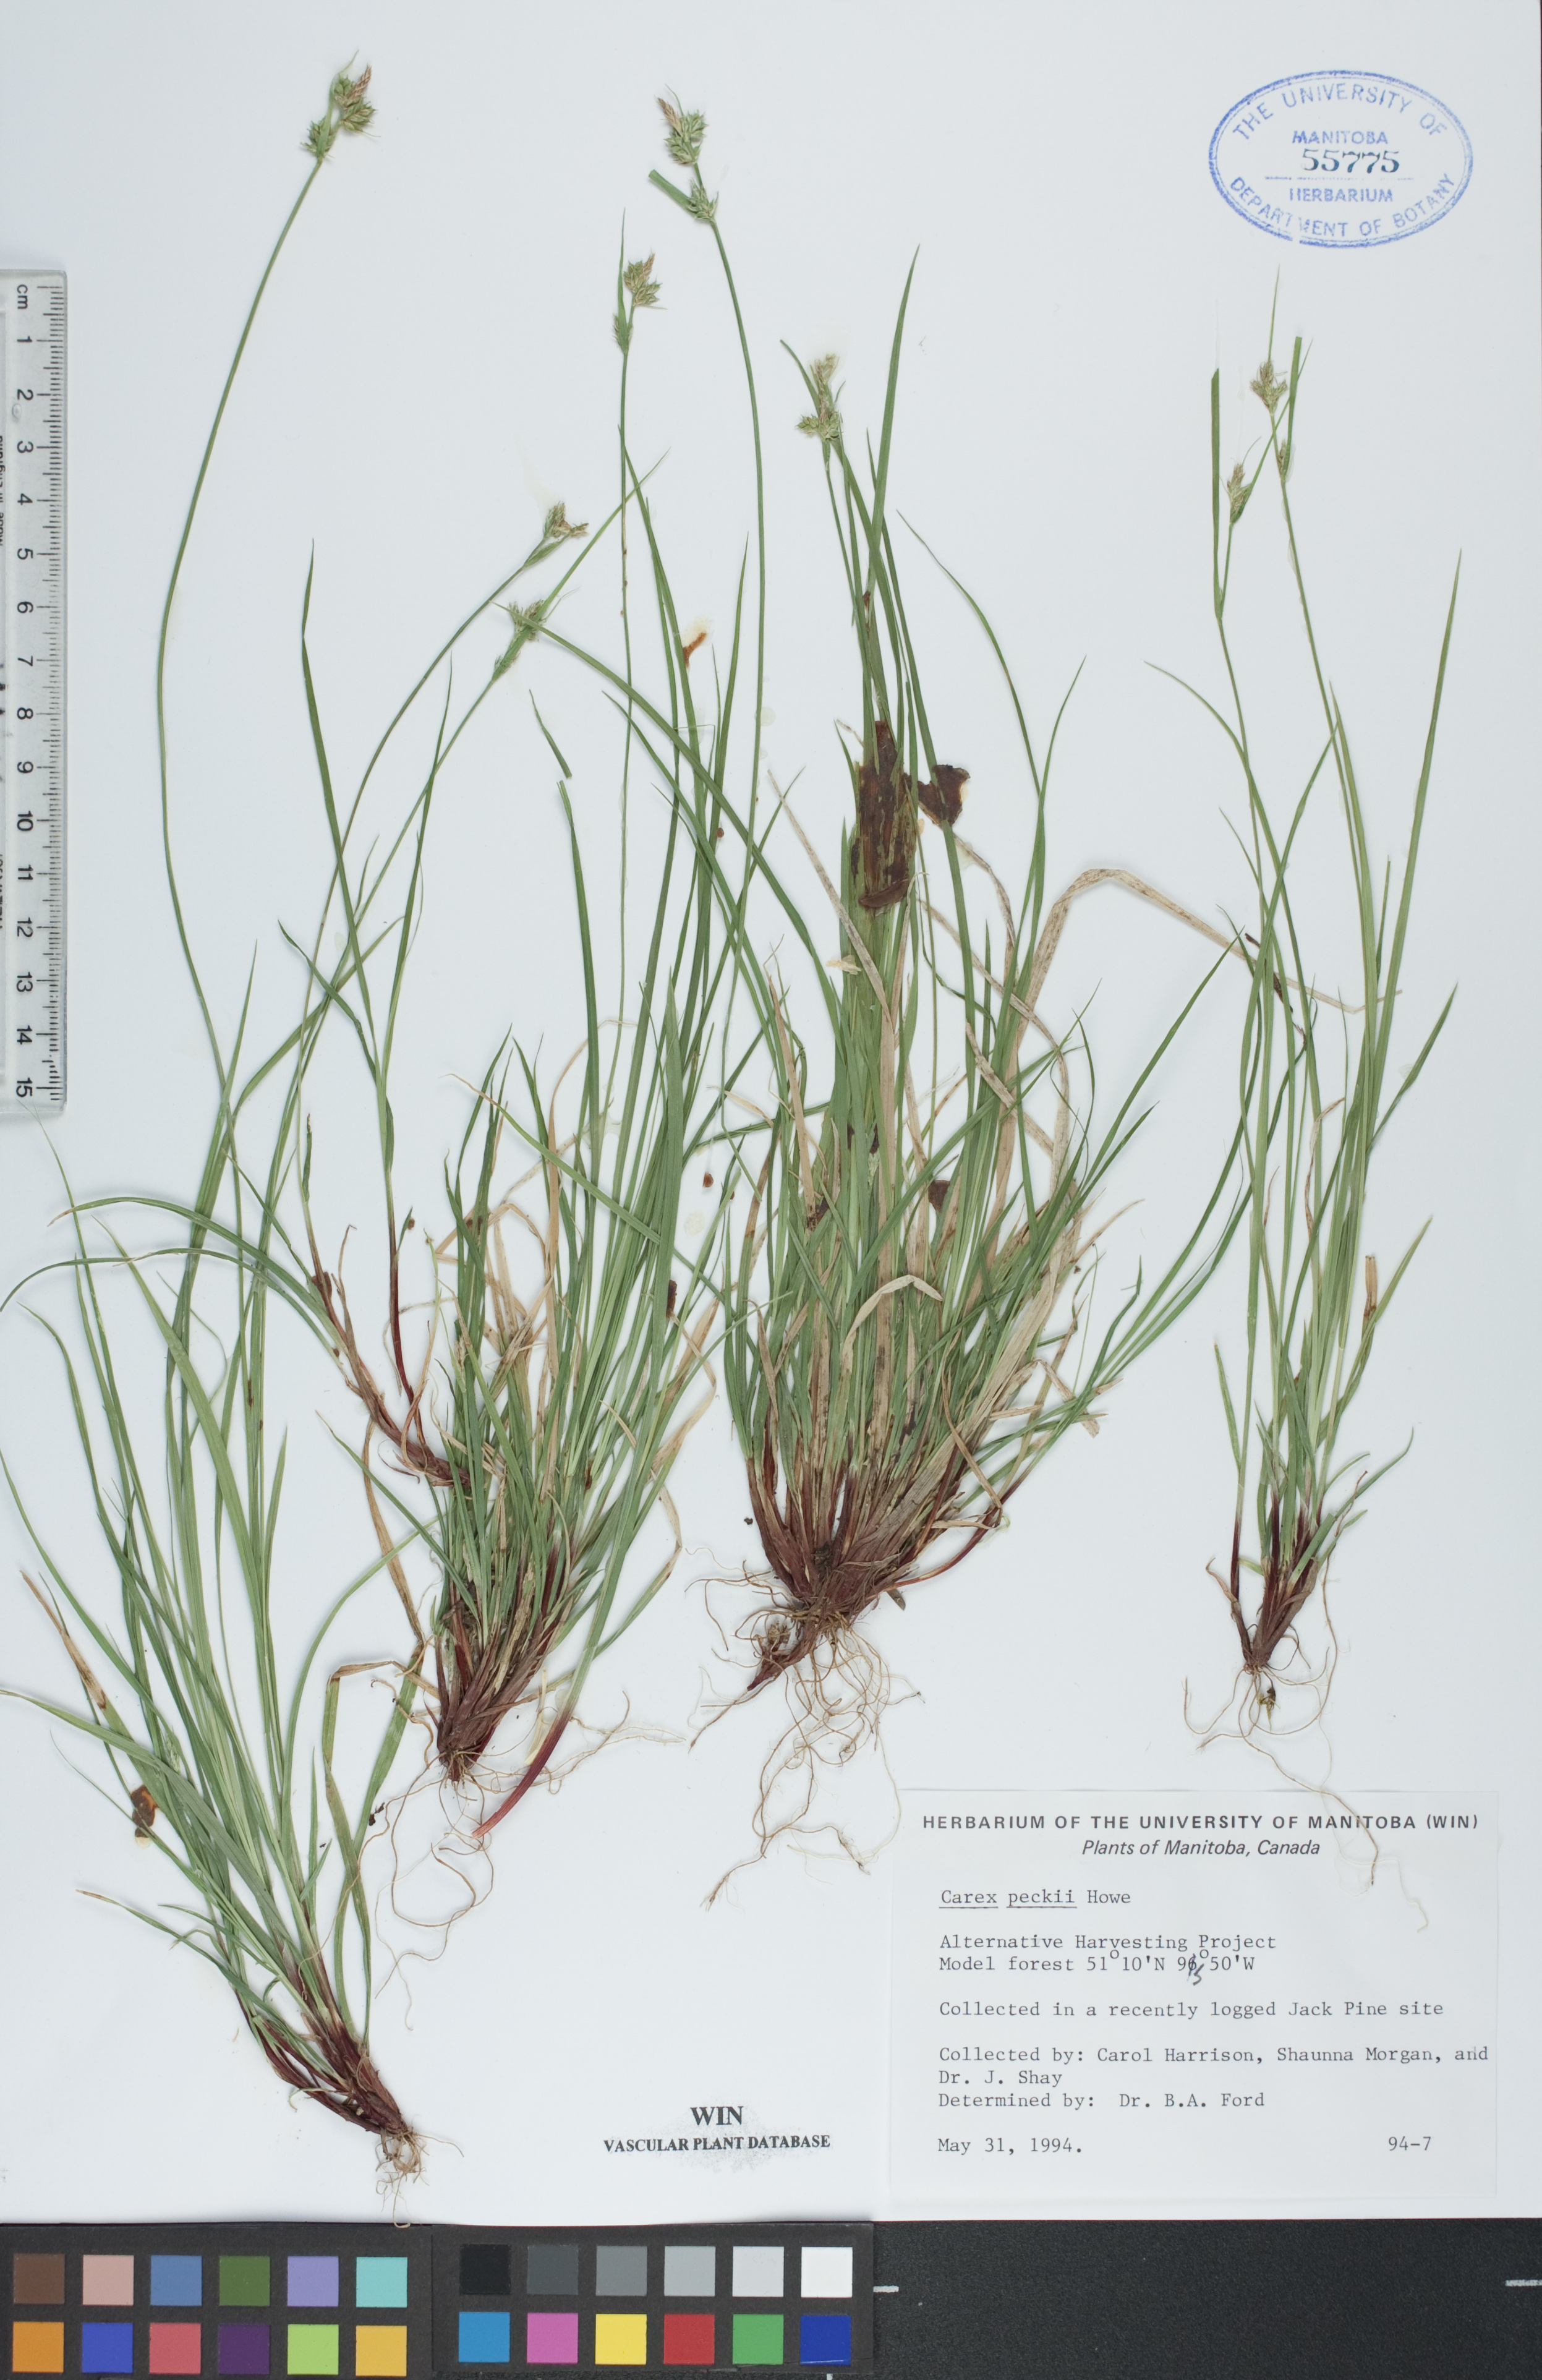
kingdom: Plantae
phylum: Tracheophyta
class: Liliopsida
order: Poales
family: Cyperaceae
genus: Carex
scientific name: Carex peckii
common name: Peck's oak sedge
